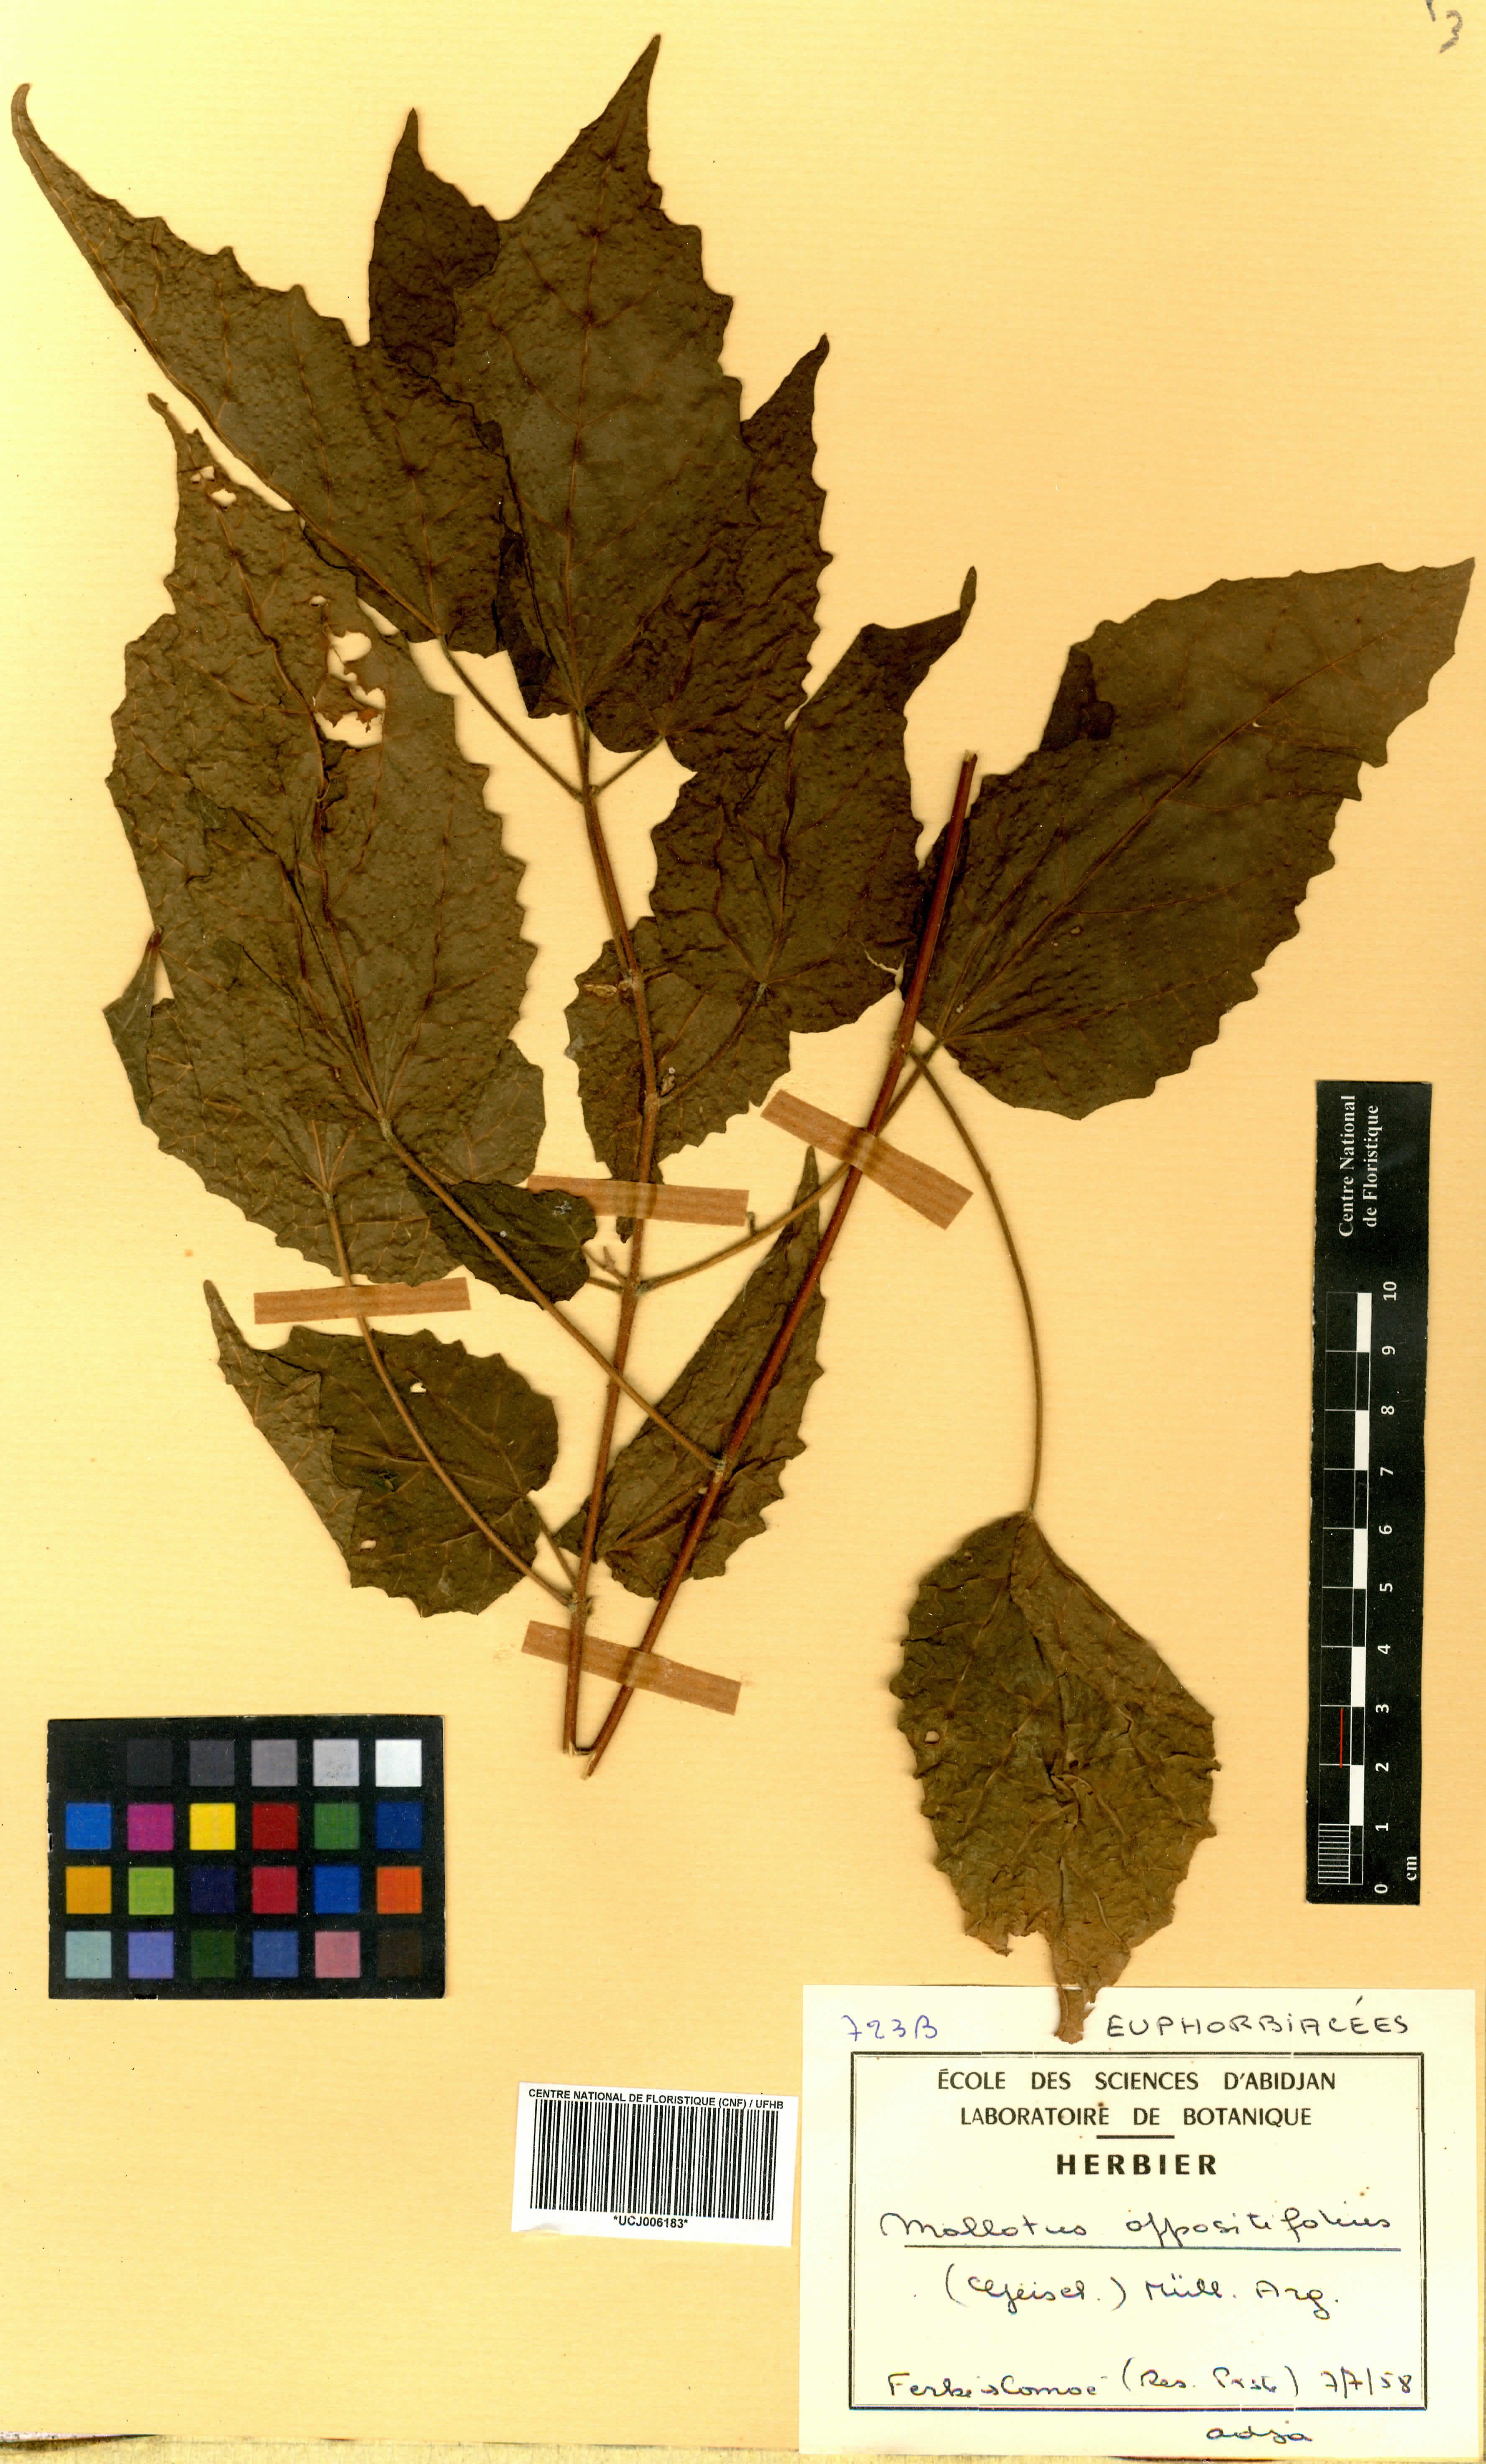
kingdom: Plantae
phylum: Tracheophyta
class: Magnoliopsida
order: Malpighiales
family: Euphorbiaceae
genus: Mallotus
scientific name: Mallotus oppositifolius
